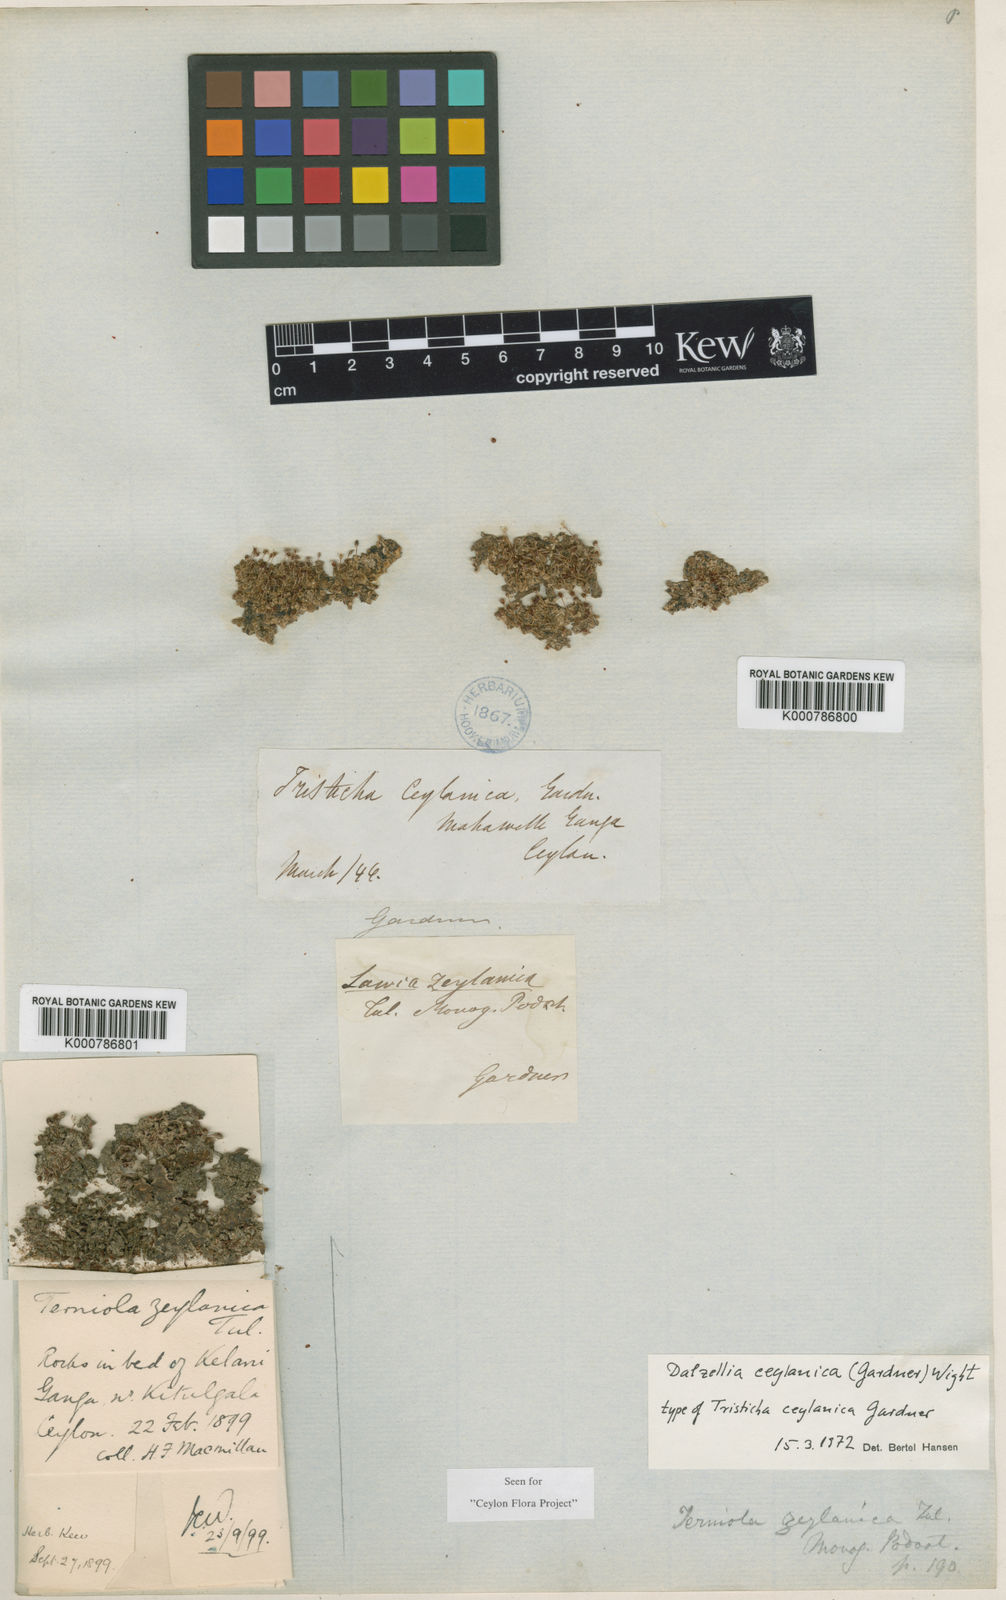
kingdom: Plantae
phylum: Tracheophyta
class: Magnoliopsida
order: Malpighiales
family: Podostemaceae
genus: Dalzellia
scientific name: Dalzellia ceylanica
